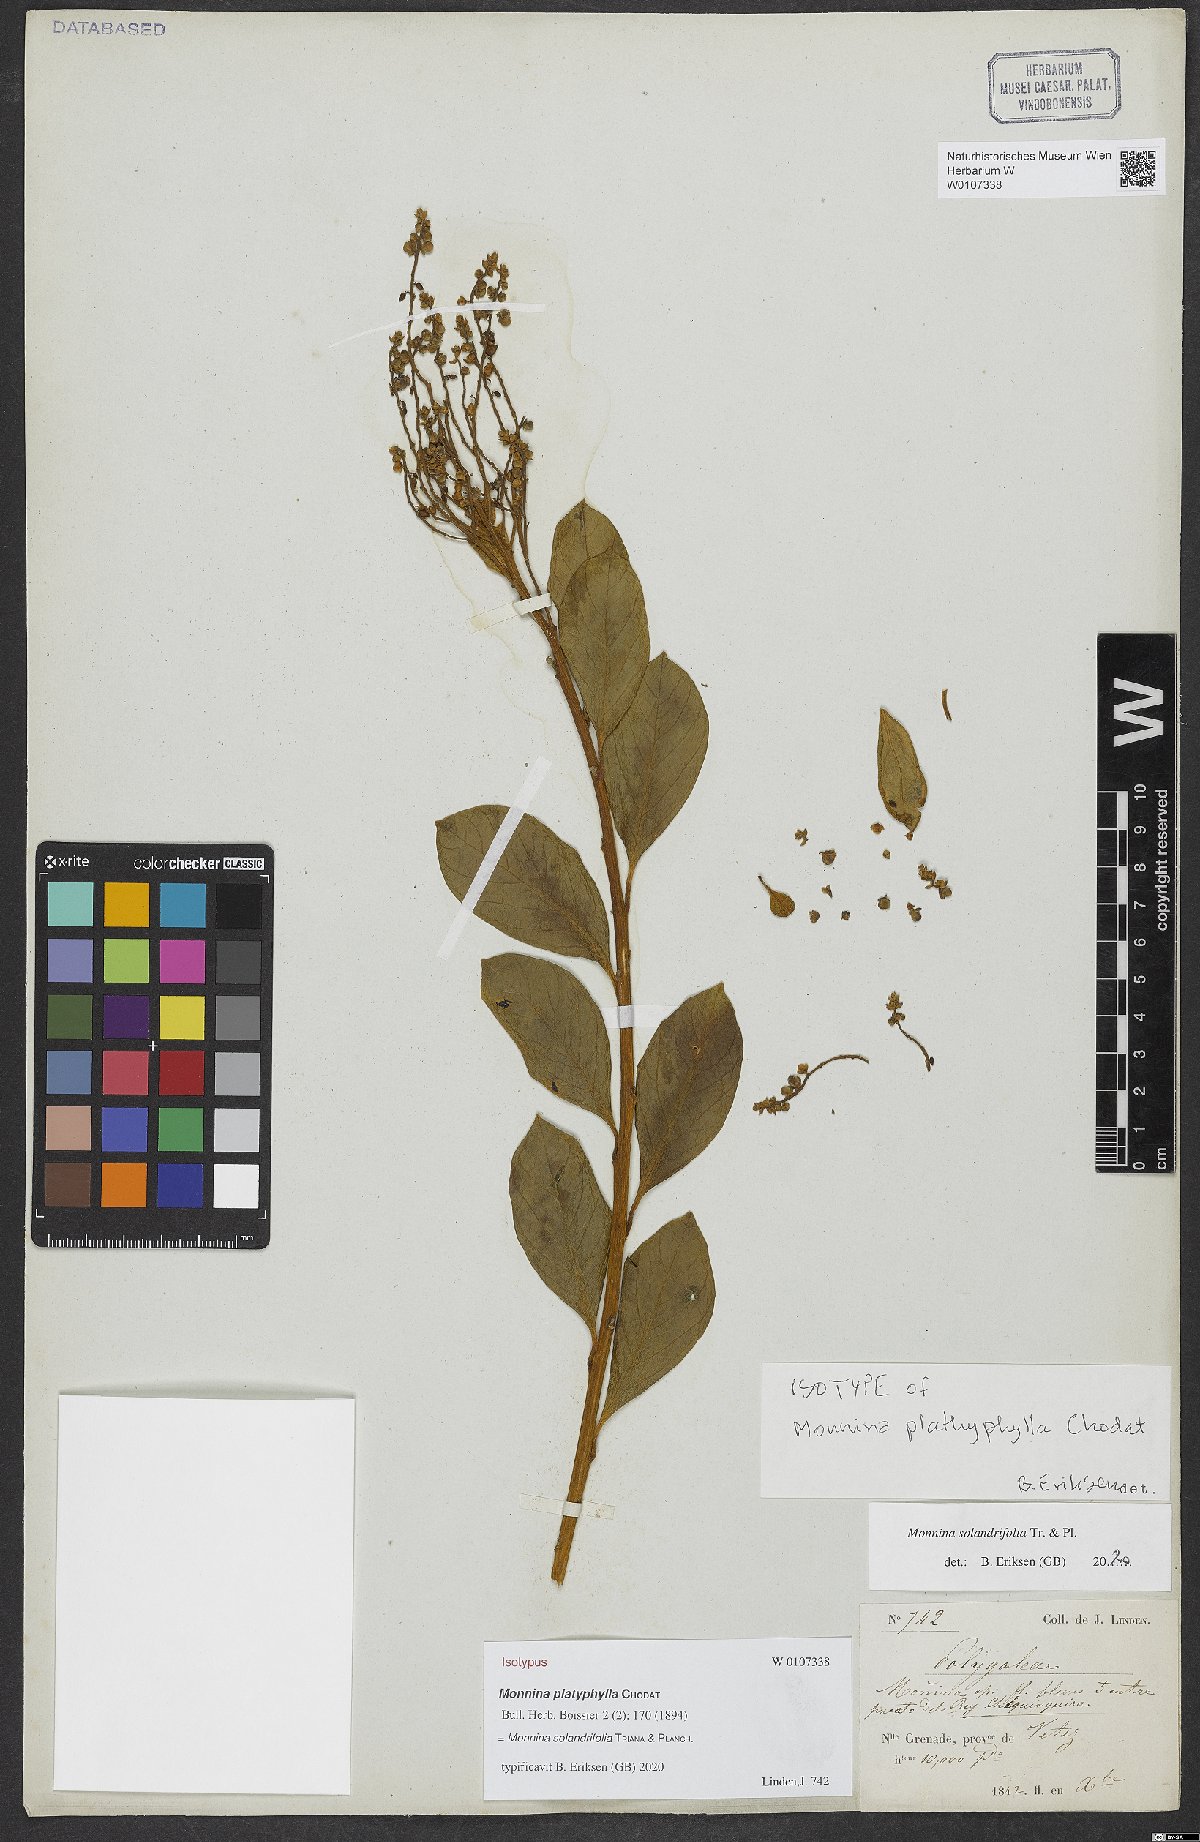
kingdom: Plantae
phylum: Tracheophyta
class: Magnoliopsida
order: Fabales
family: Polygalaceae
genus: Monnina
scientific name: Monnina solandrifolia
